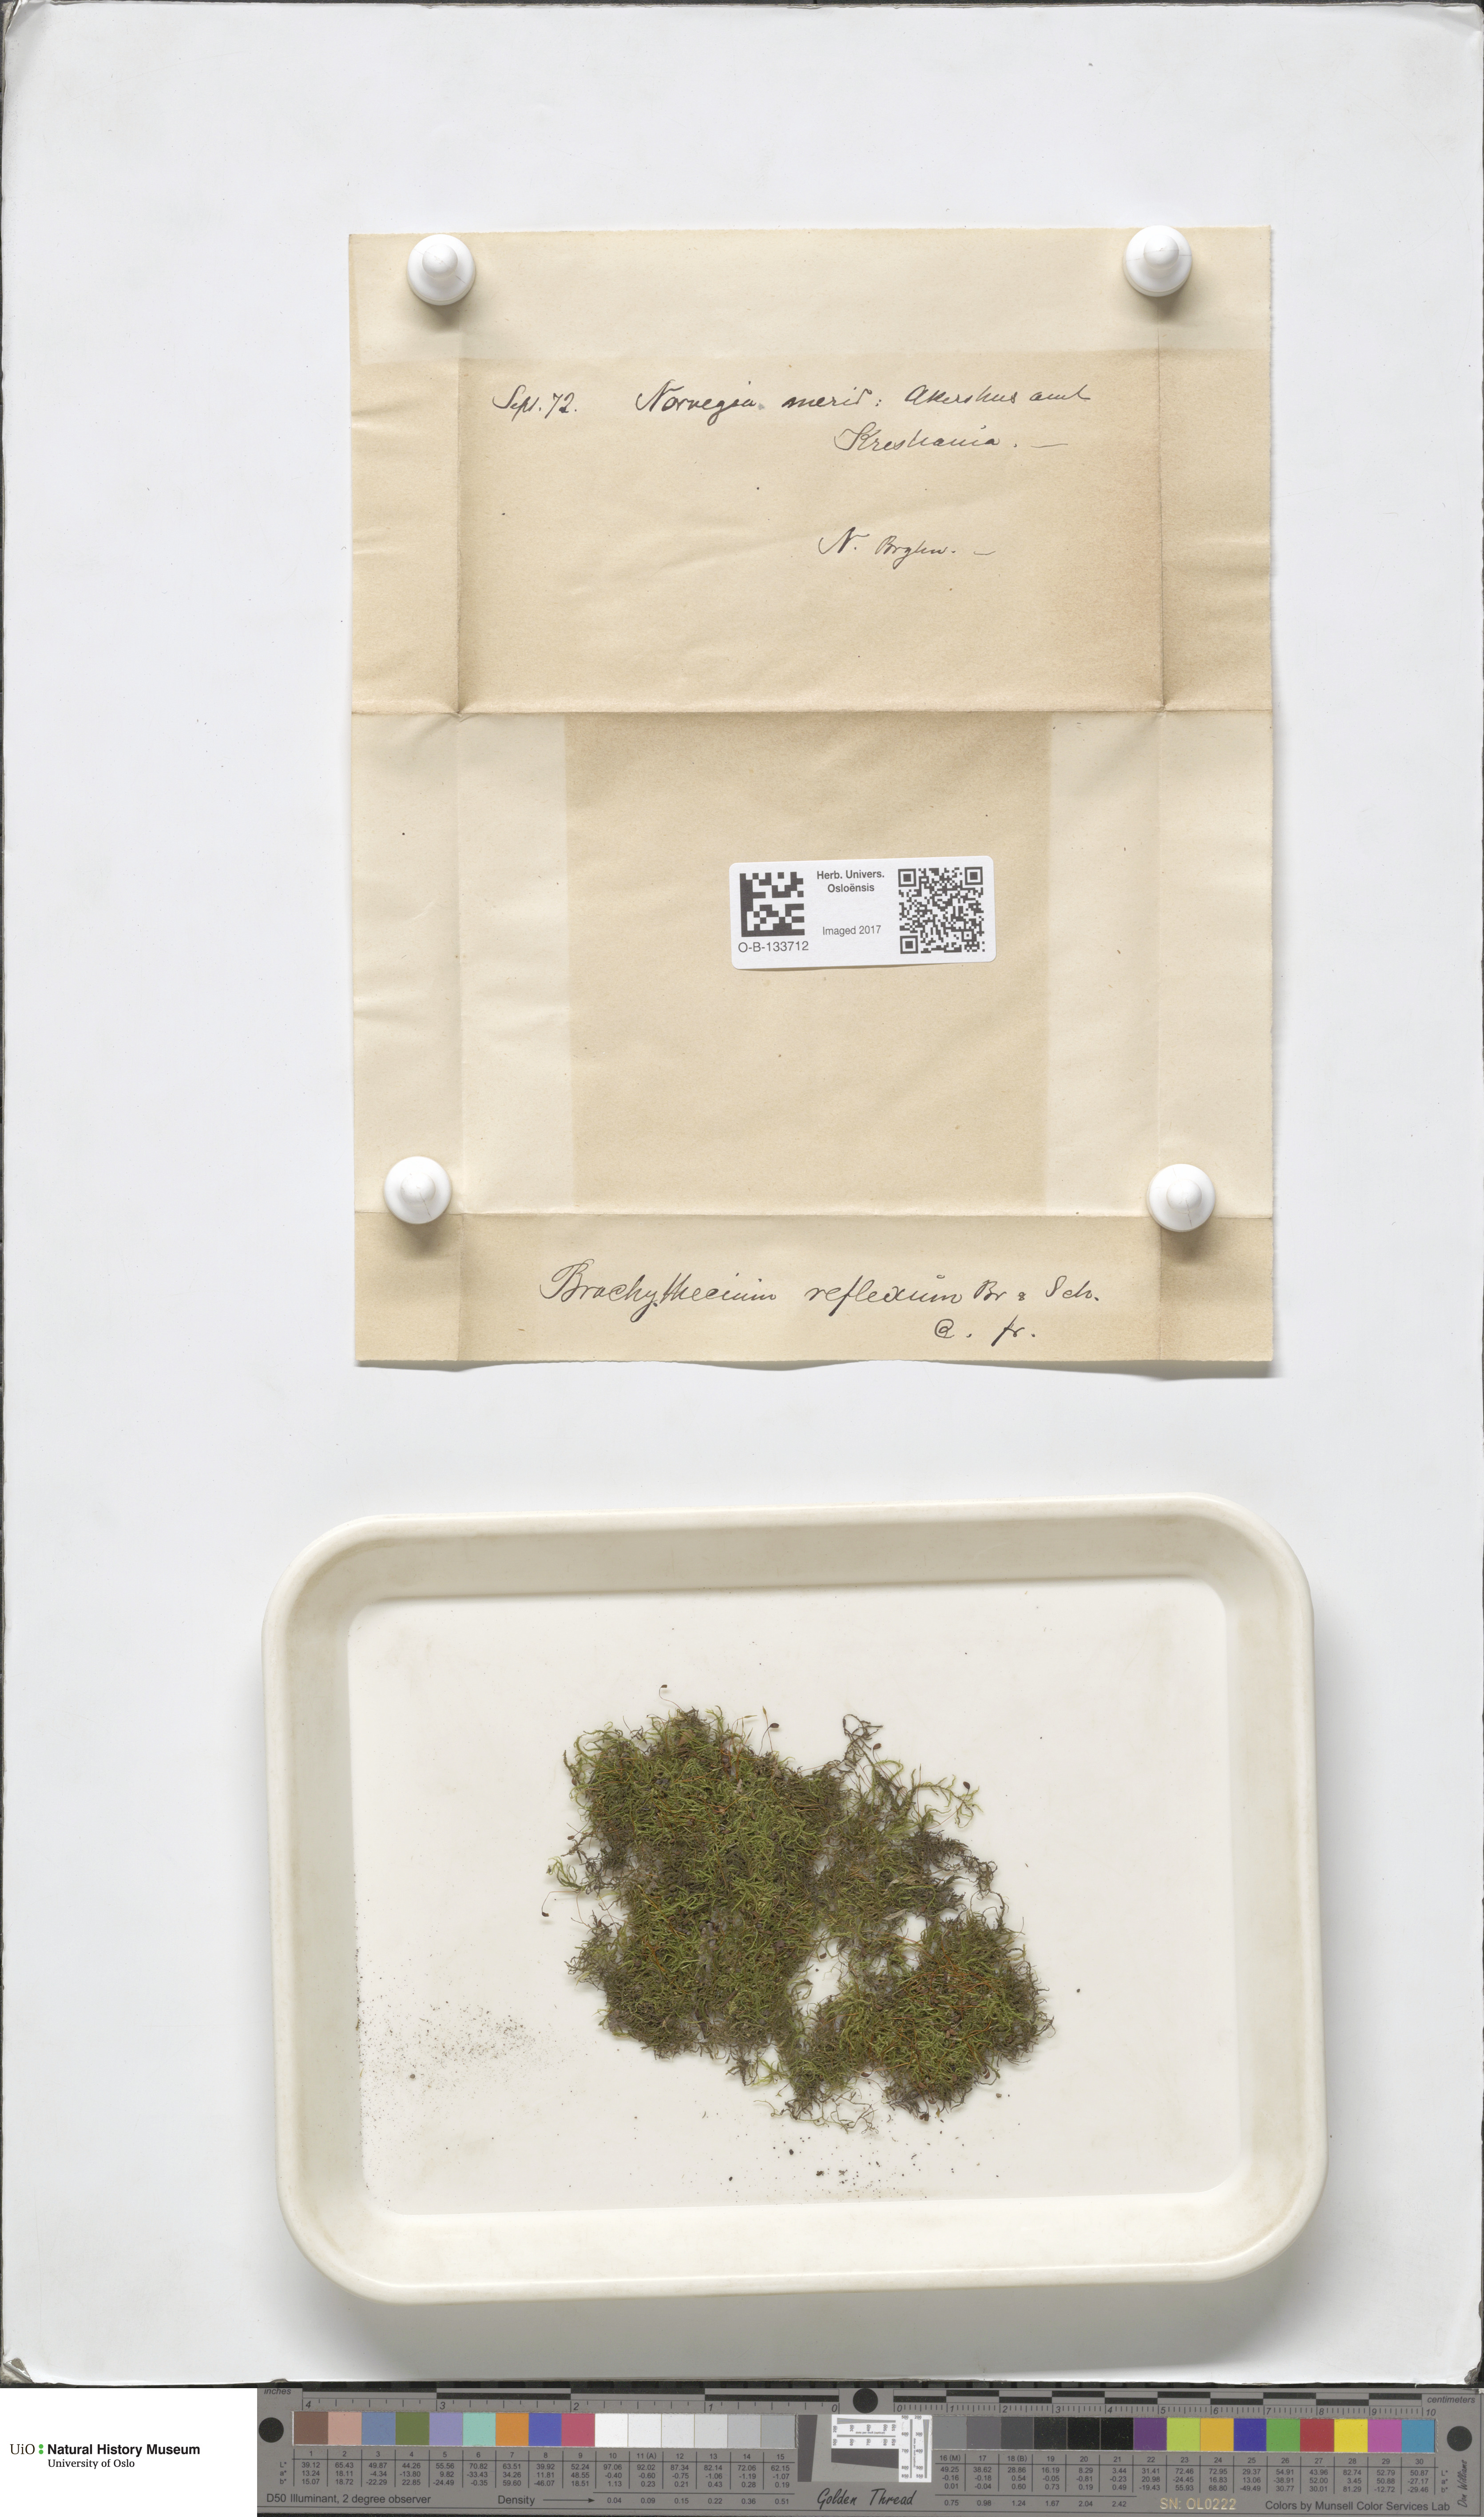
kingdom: Plantae
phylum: Bryophyta
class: Bryopsida
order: Hypnales
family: Brachytheciaceae
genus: Sciuro-hypnum
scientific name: Sciuro-hypnum reflexum
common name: Reflexed feather-moss
